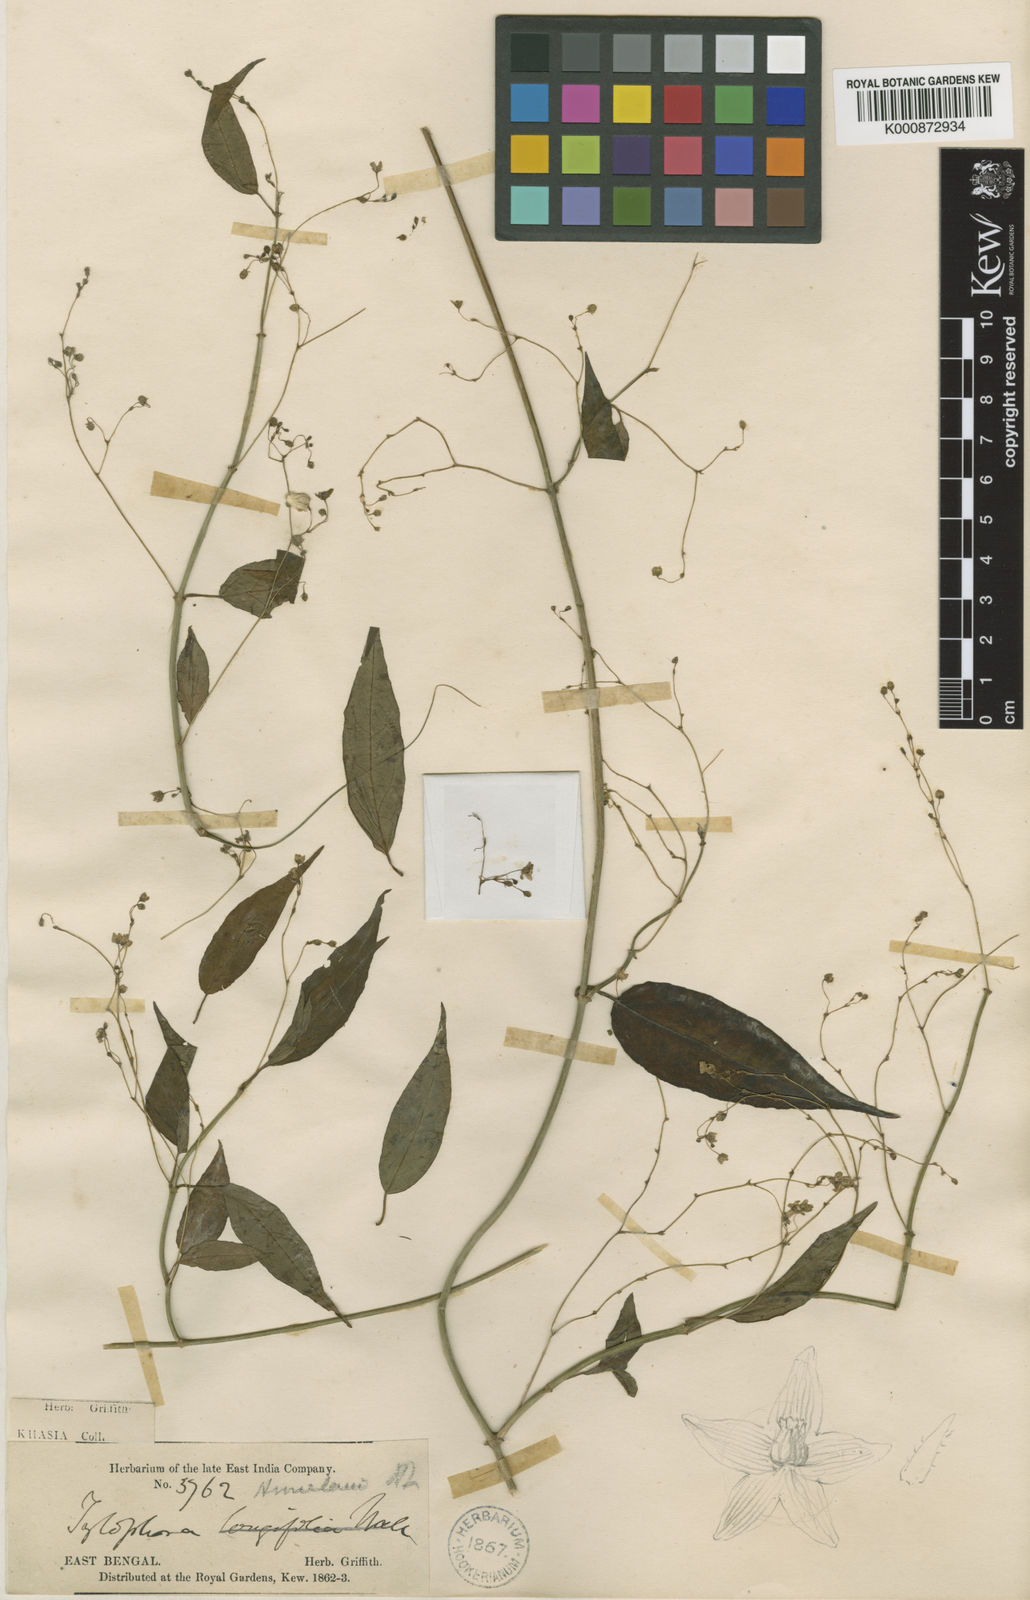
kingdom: Plantae
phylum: Tracheophyta
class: Magnoliopsida
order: Gentianales
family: Apocynaceae
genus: Vincetoxicum
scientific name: Vincetoxicum himalaicum
